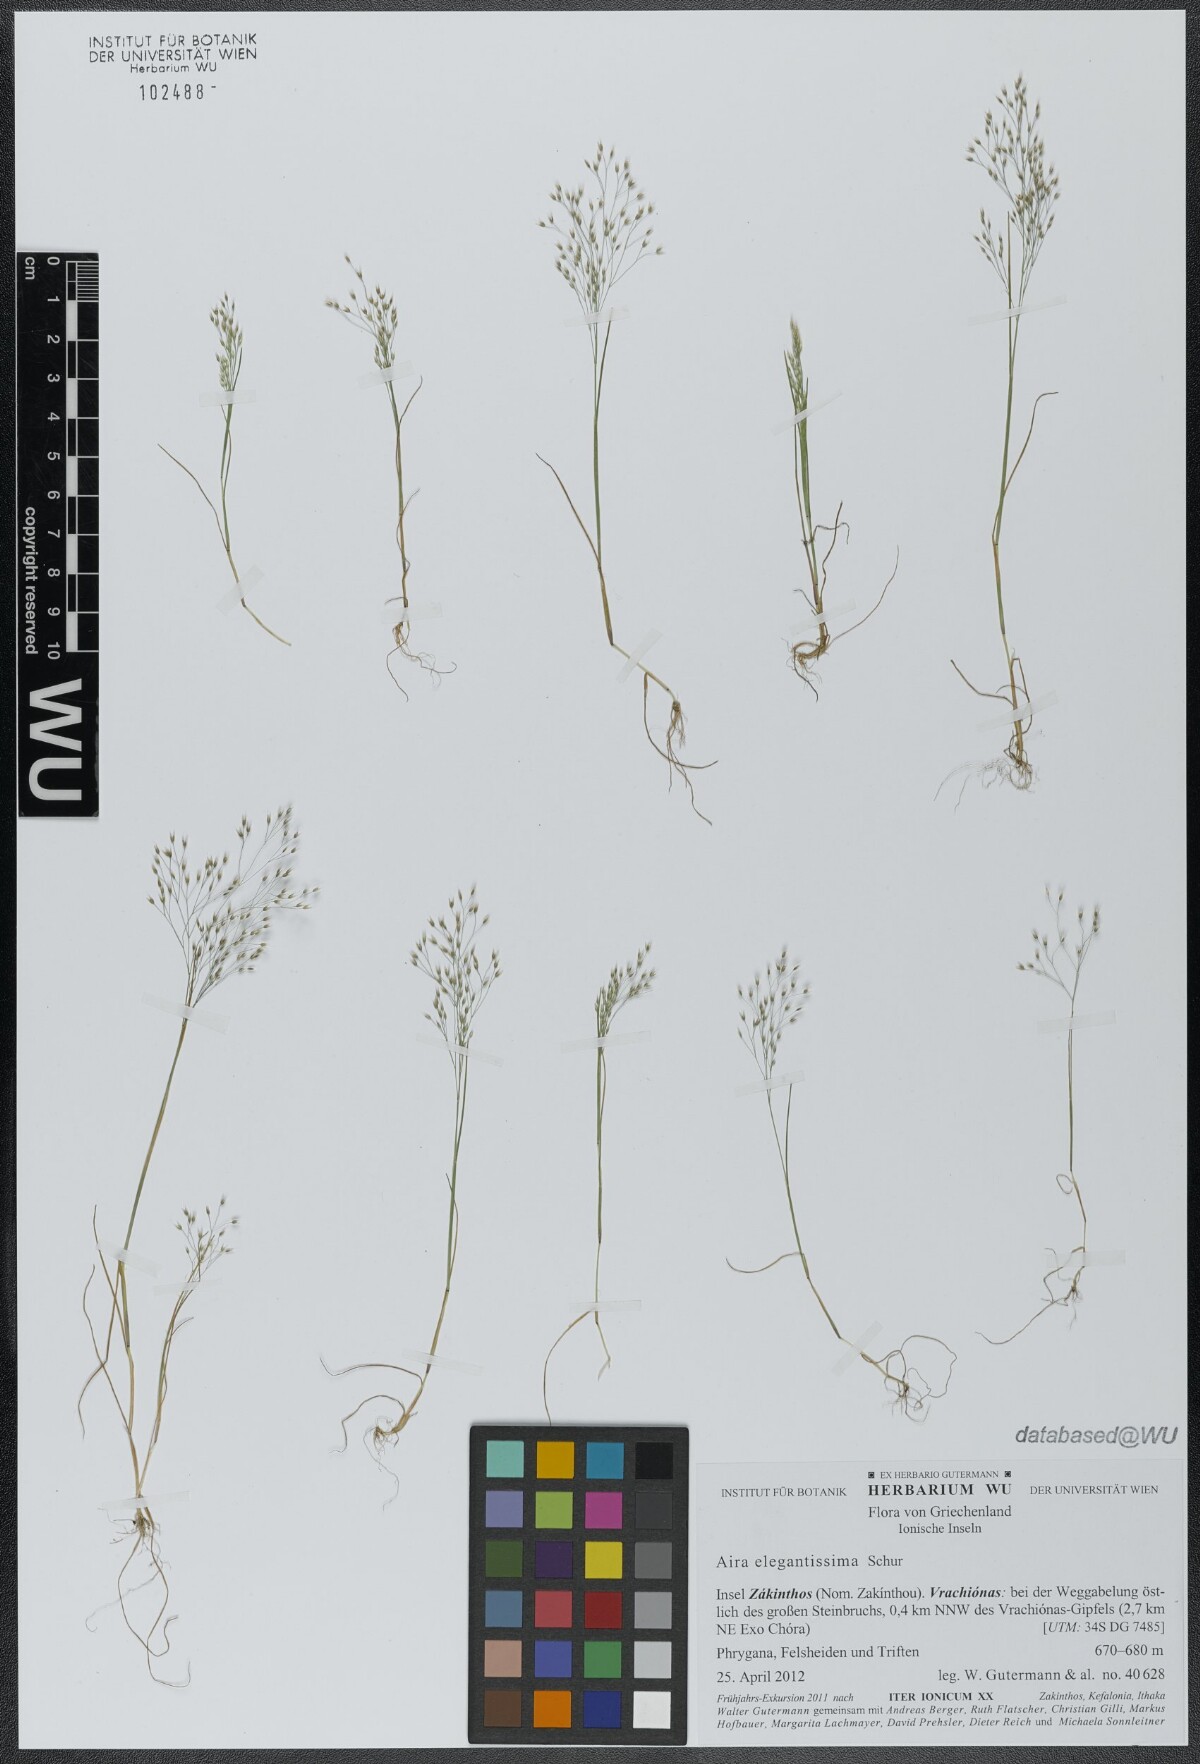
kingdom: Plantae
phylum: Tracheophyta
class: Liliopsida
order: Poales
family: Poaceae
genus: Aira
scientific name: Aira elegans
